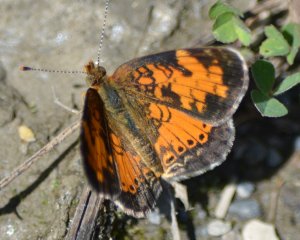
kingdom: Animalia
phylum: Arthropoda
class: Insecta
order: Lepidoptera
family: Nymphalidae
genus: Phyciodes
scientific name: Phyciodes tharos
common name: Northern Crescent
